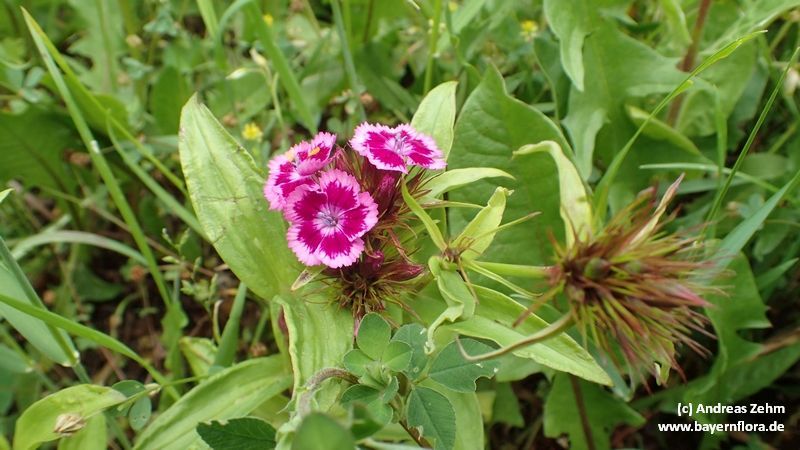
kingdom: Plantae
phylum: Tracheophyta
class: Magnoliopsida
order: Caryophyllales
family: Caryophyllaceae
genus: Dianthus
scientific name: Dianthus barbatus
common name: Sweet-william
